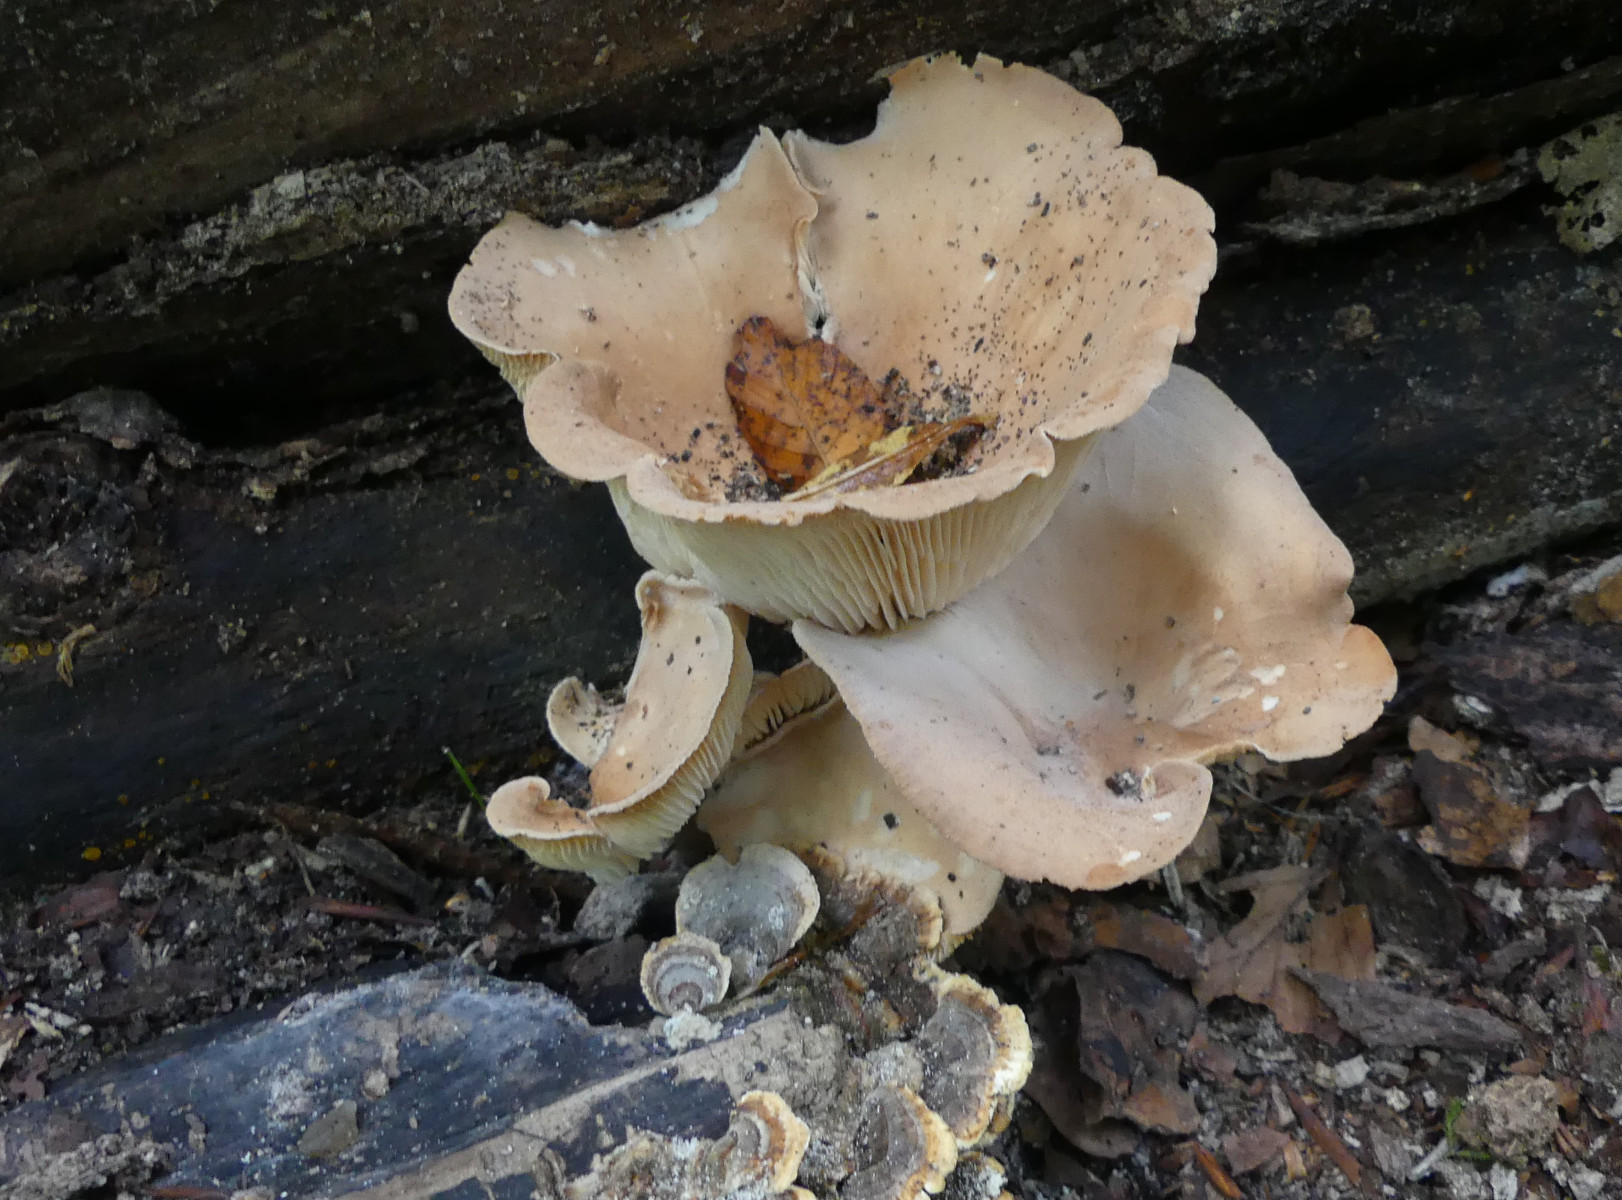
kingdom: Fungi
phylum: Basidiomycota
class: Agaricomycetes
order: Agaricales
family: Tricholomataceae
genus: Infundibulicybe
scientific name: Infundibulicybe gibba
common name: almindelig tragthat
